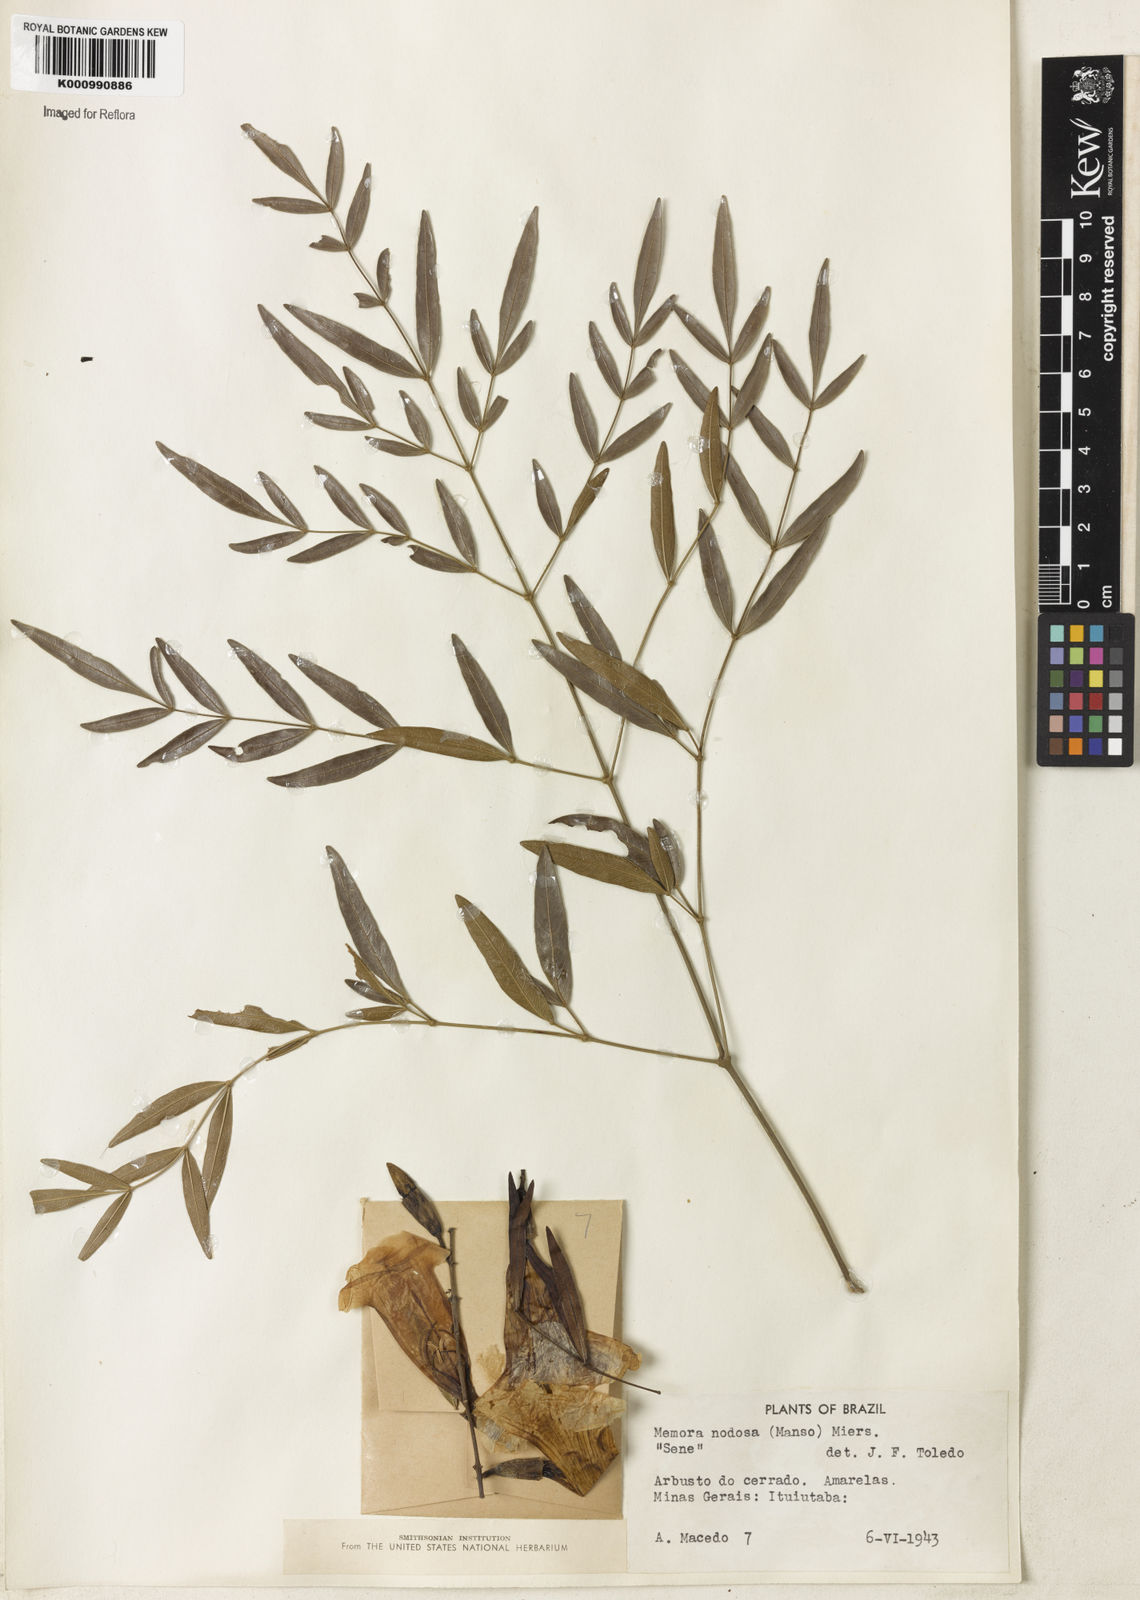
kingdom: Plantae
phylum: Tracheophyta
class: Magnoliopsida
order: Lamiales
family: Bignoniaceae
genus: Adenocalymma
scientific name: Adenocalymma nodosum
